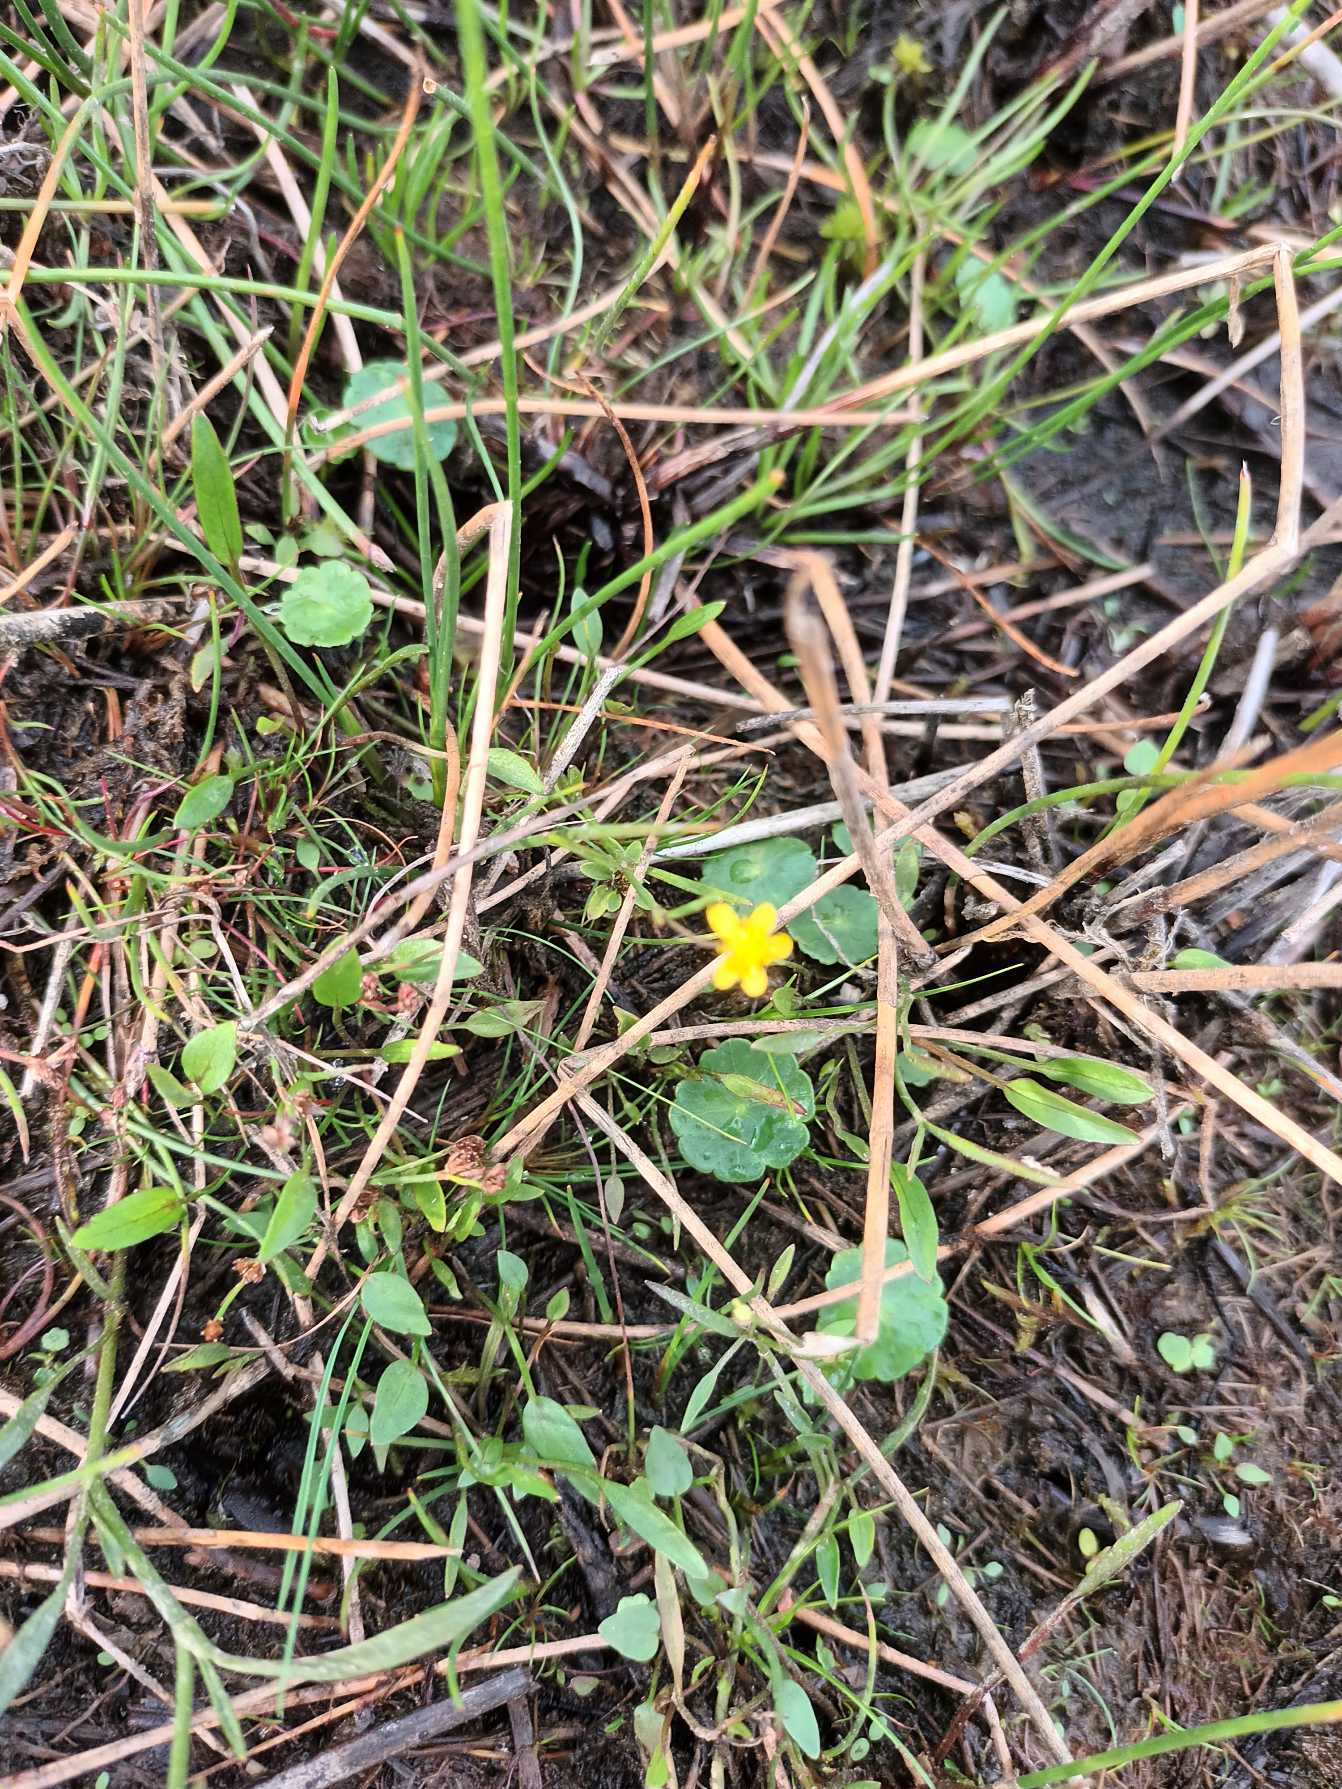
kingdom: Plantae
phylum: Tracheophyta
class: Magnoliopsida
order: Ranunculales
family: Ranunculaceae
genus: Ranunculus
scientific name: Ranunculus flammula
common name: Kær-ranunkel
